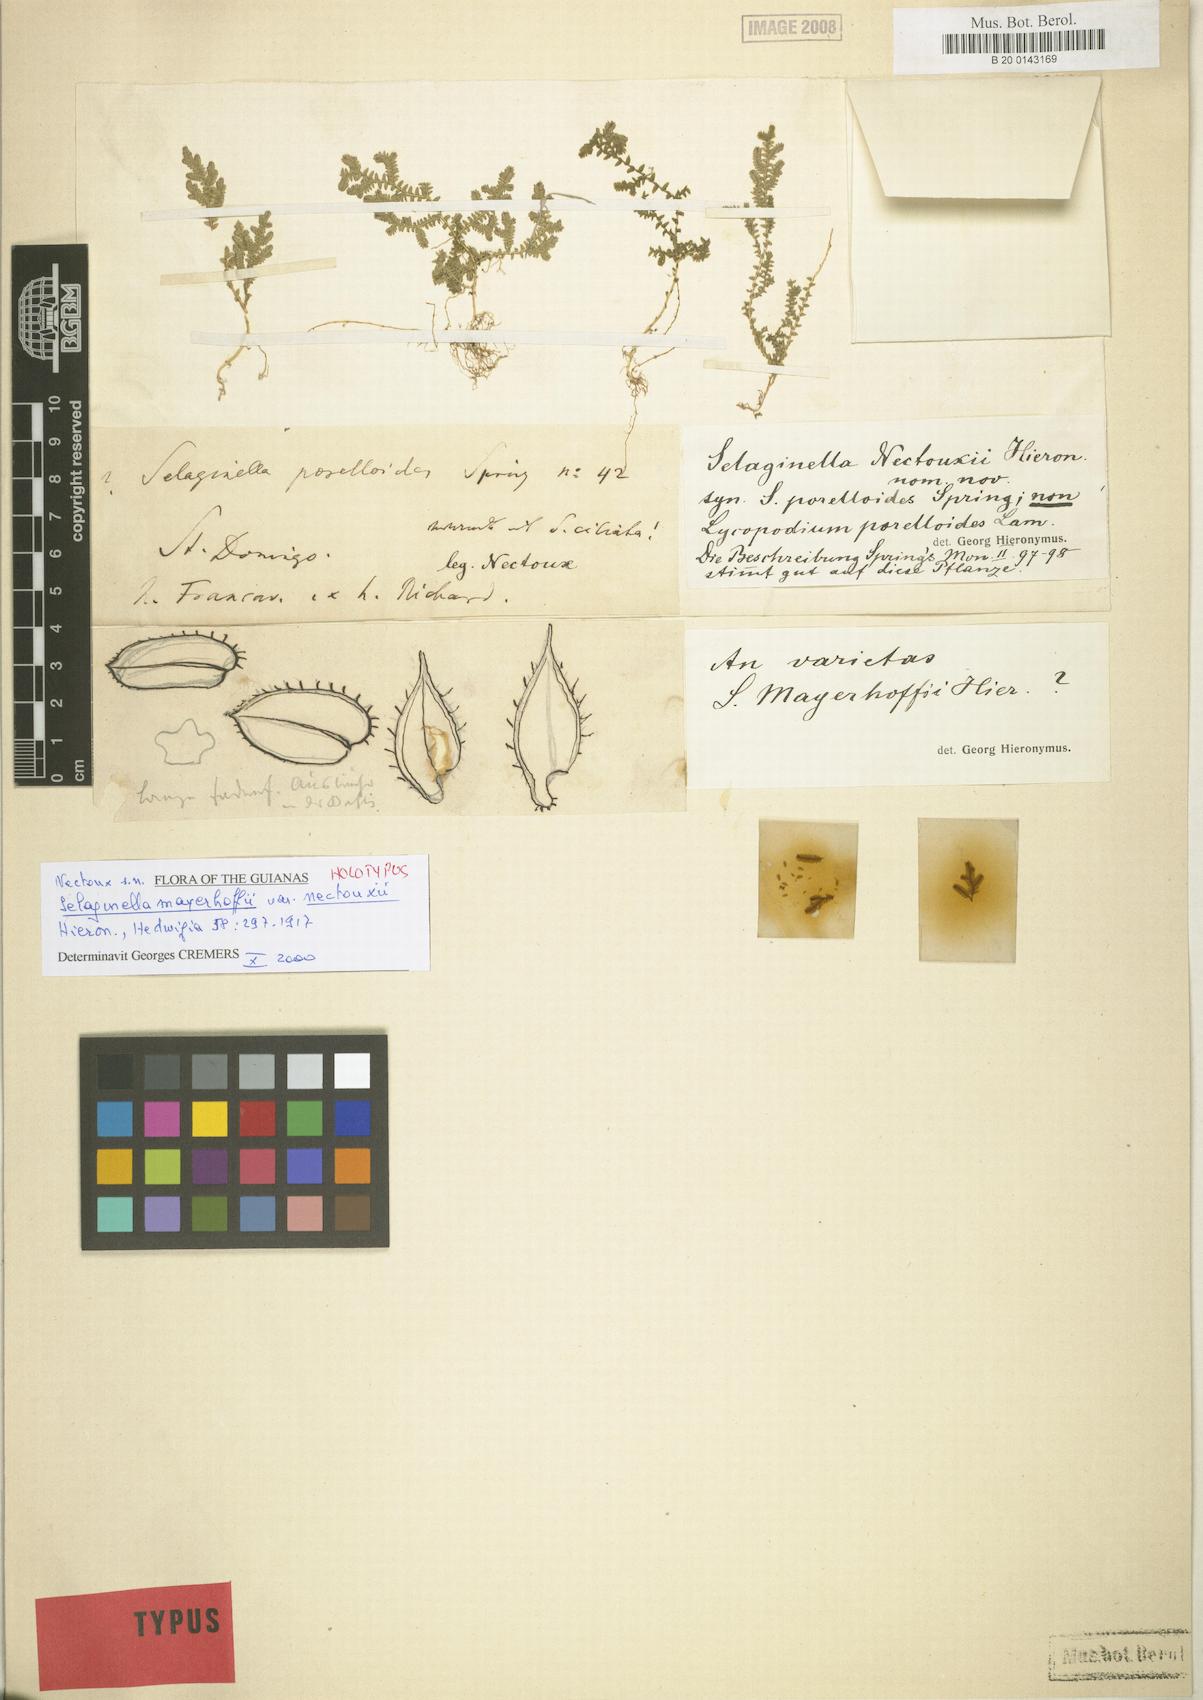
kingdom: Plantae
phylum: Tracheophyta
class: Lycopodiopsida
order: Selaginellales
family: Selaginellaceae
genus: Selaginella
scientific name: Selaginella flabellum
